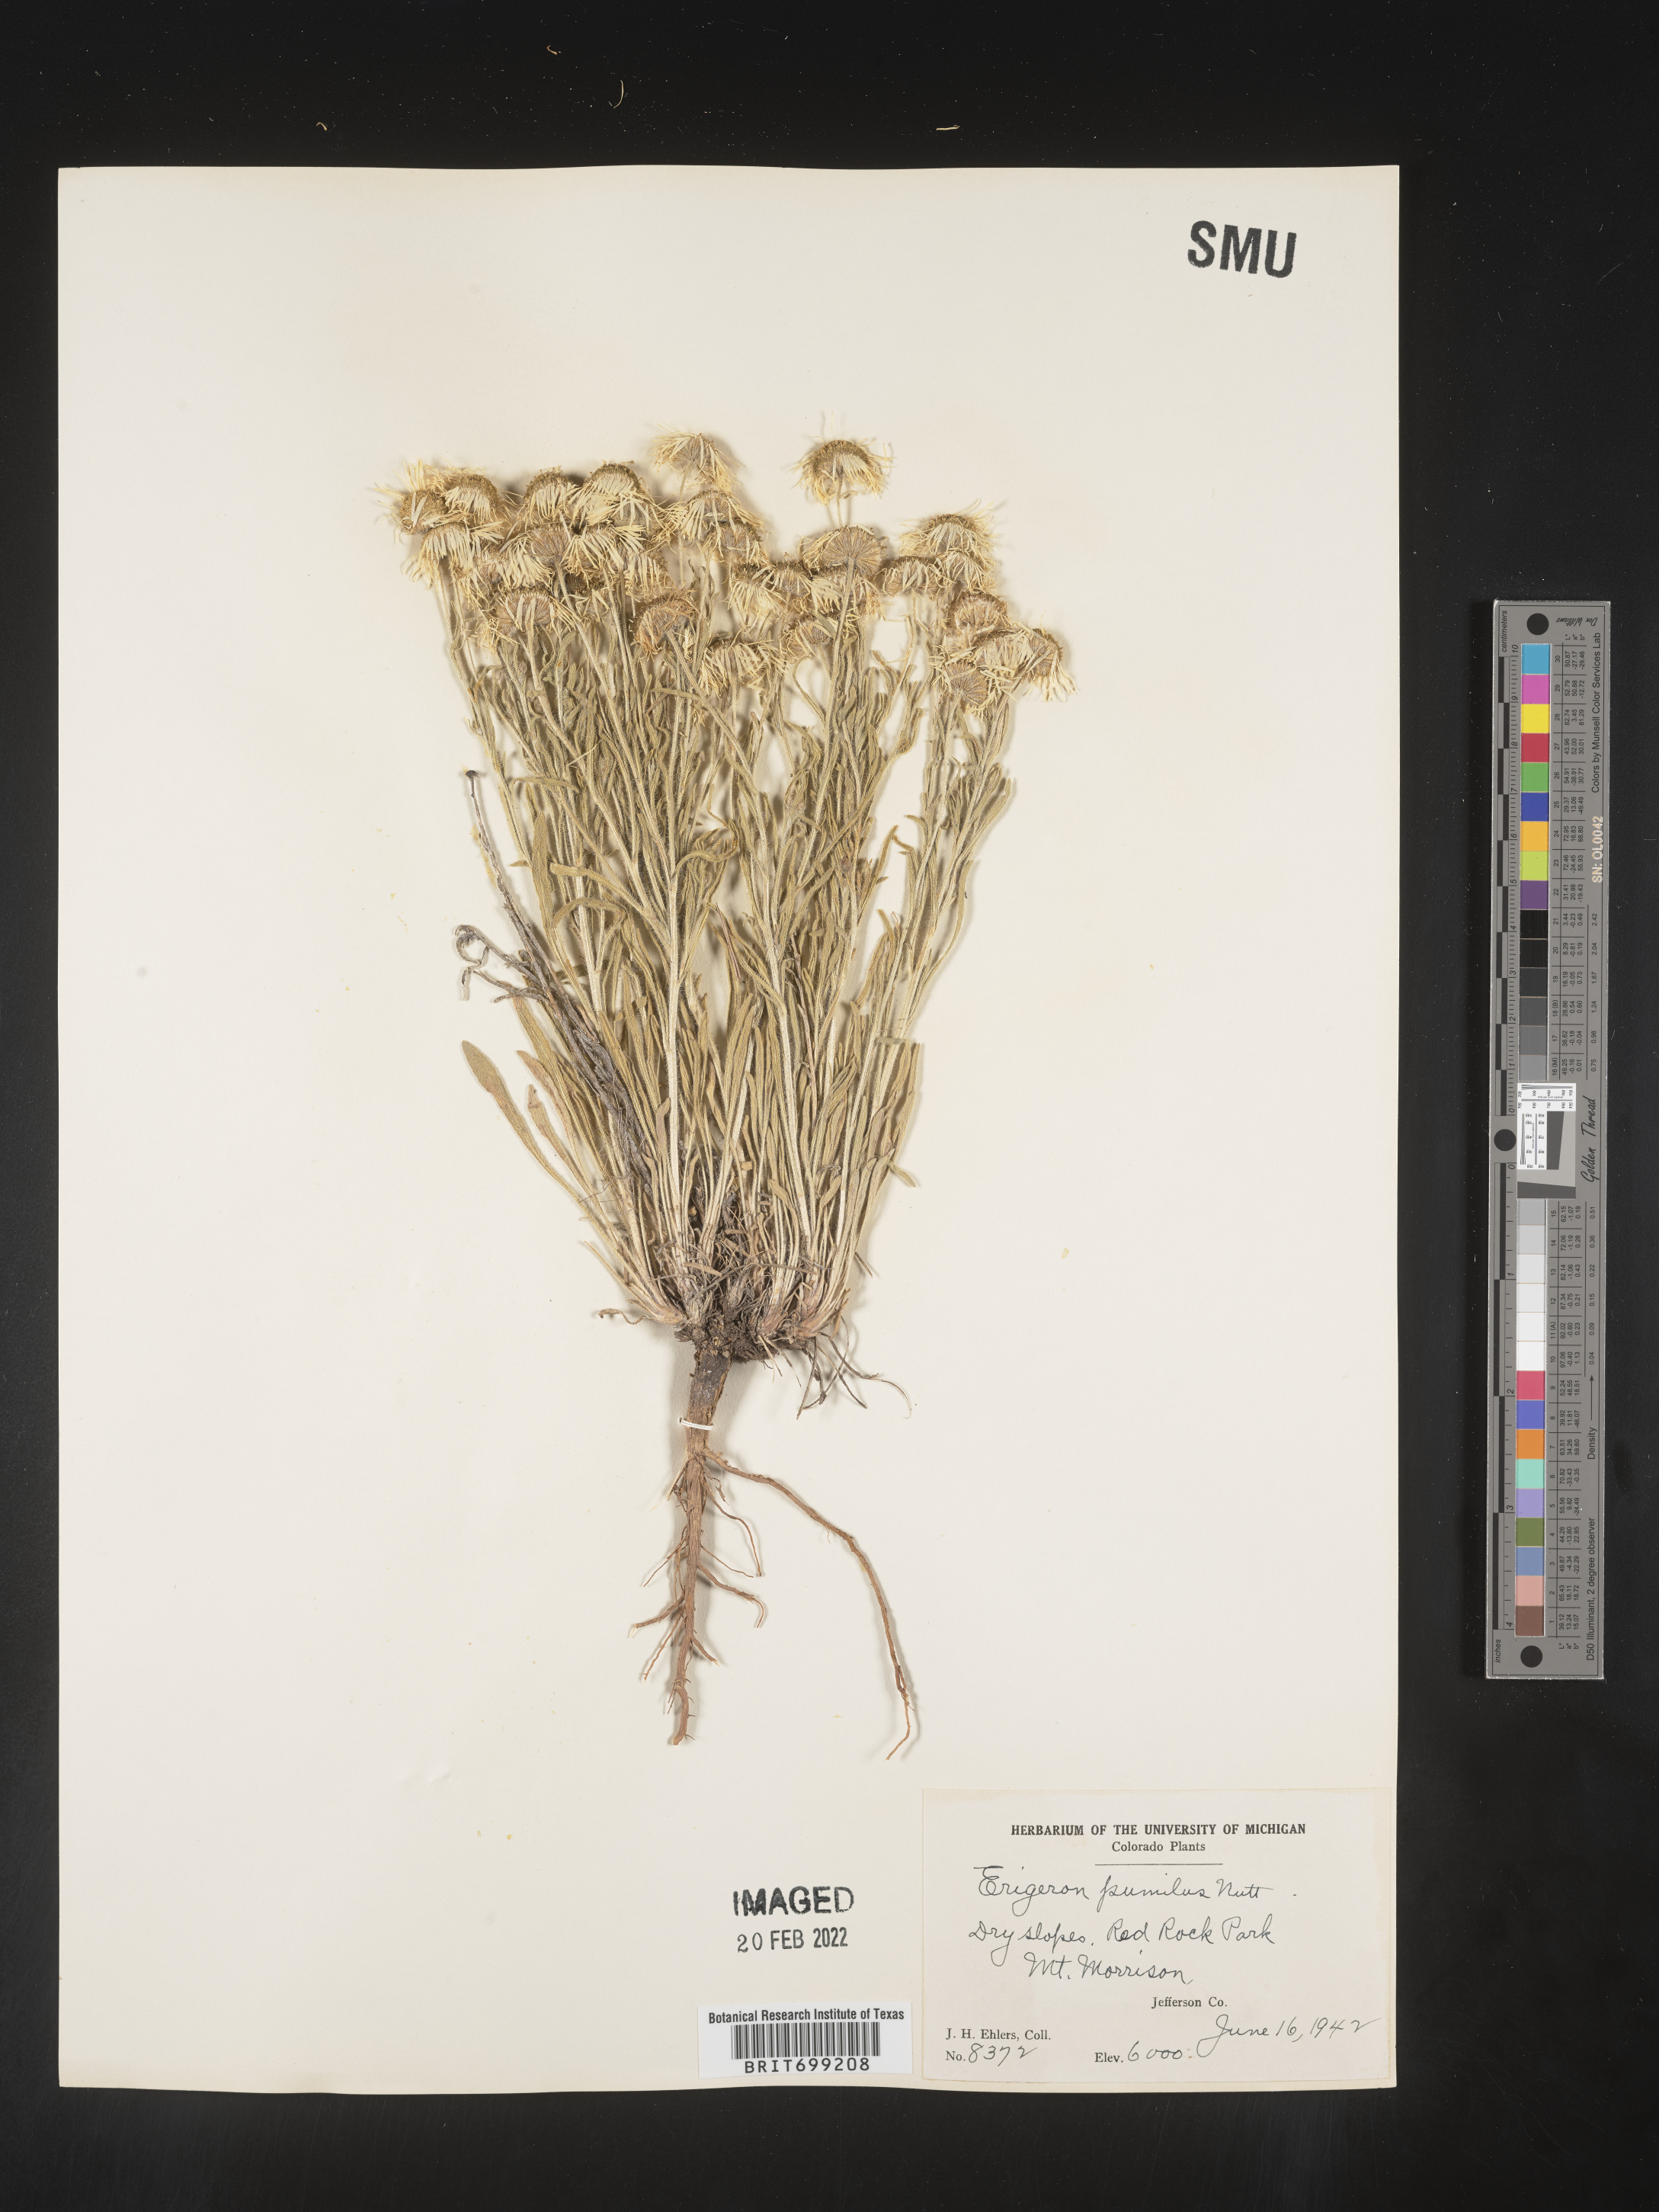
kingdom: Plantae
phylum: Tracheophyta
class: Magnoliopsida
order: Asterales
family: Asteraceae
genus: Erigeron
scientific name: Erigeron pumilus
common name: Shaggy fleabane
